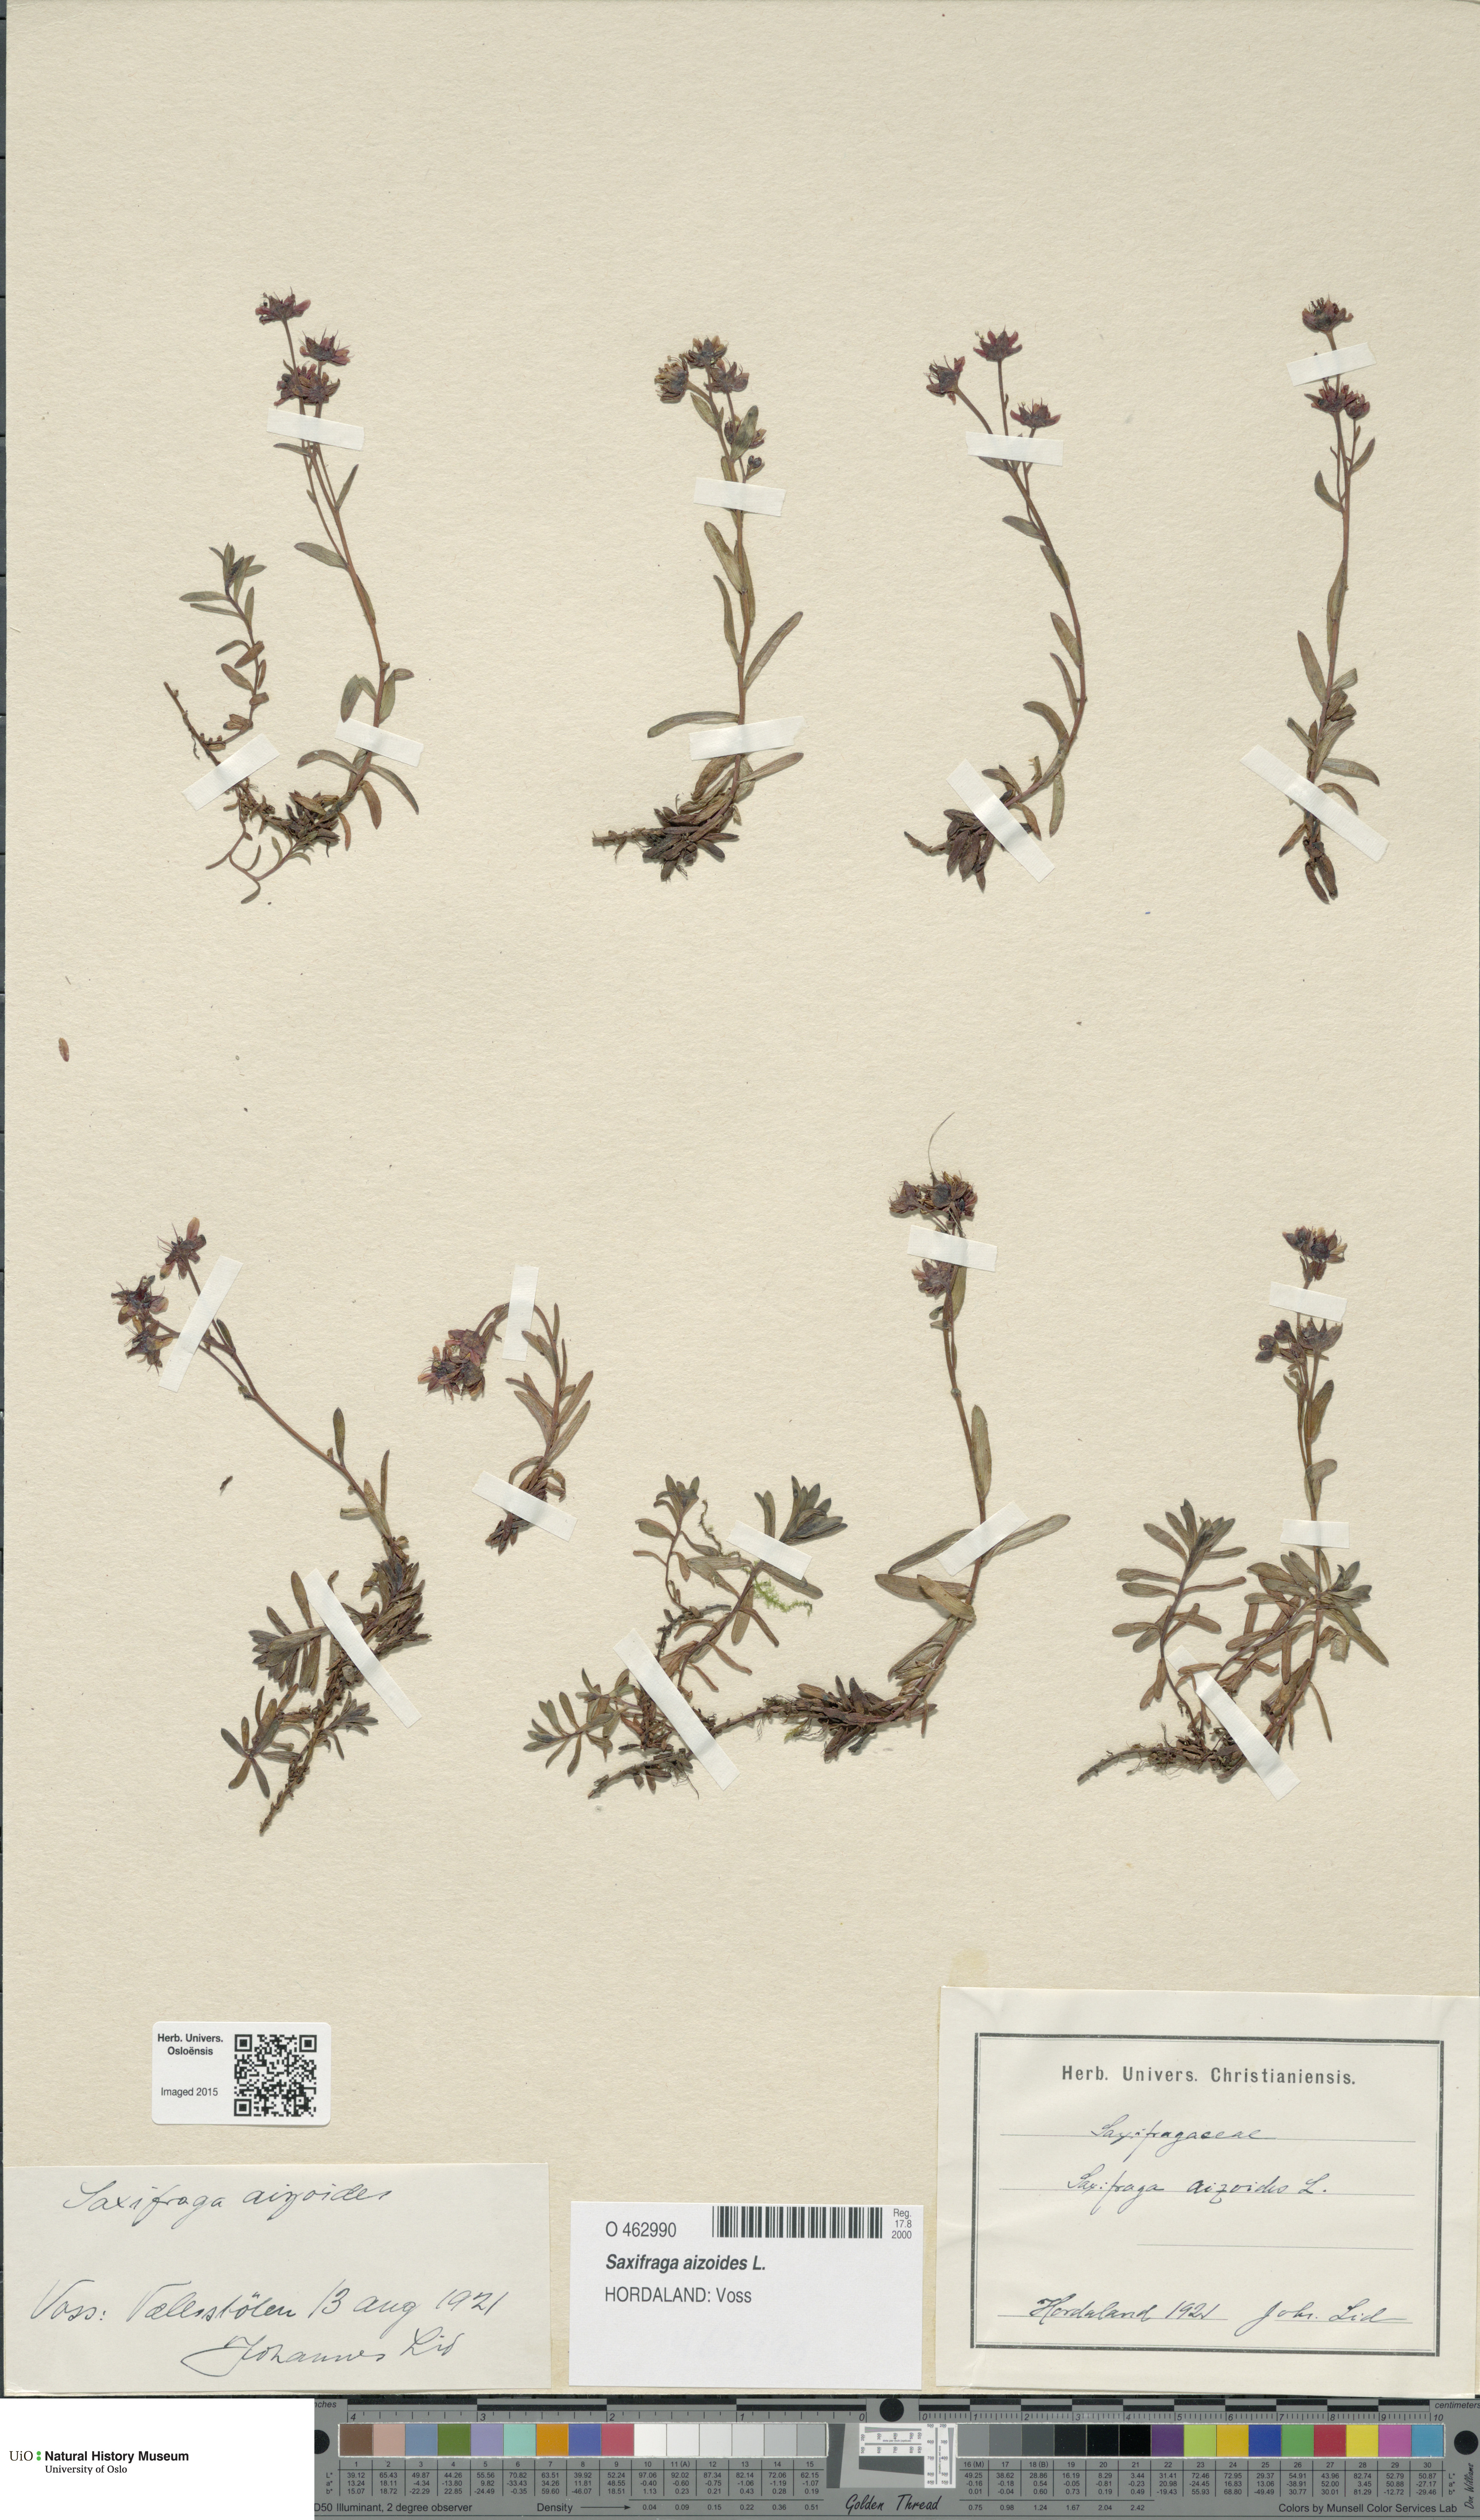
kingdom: Plantae
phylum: Tracheophyta
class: Magnoliopsida
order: Saxifragales
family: Saxifragaceae
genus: Saxifraga
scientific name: Saxifraga aizoides
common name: Yellow mountain saxifrage
